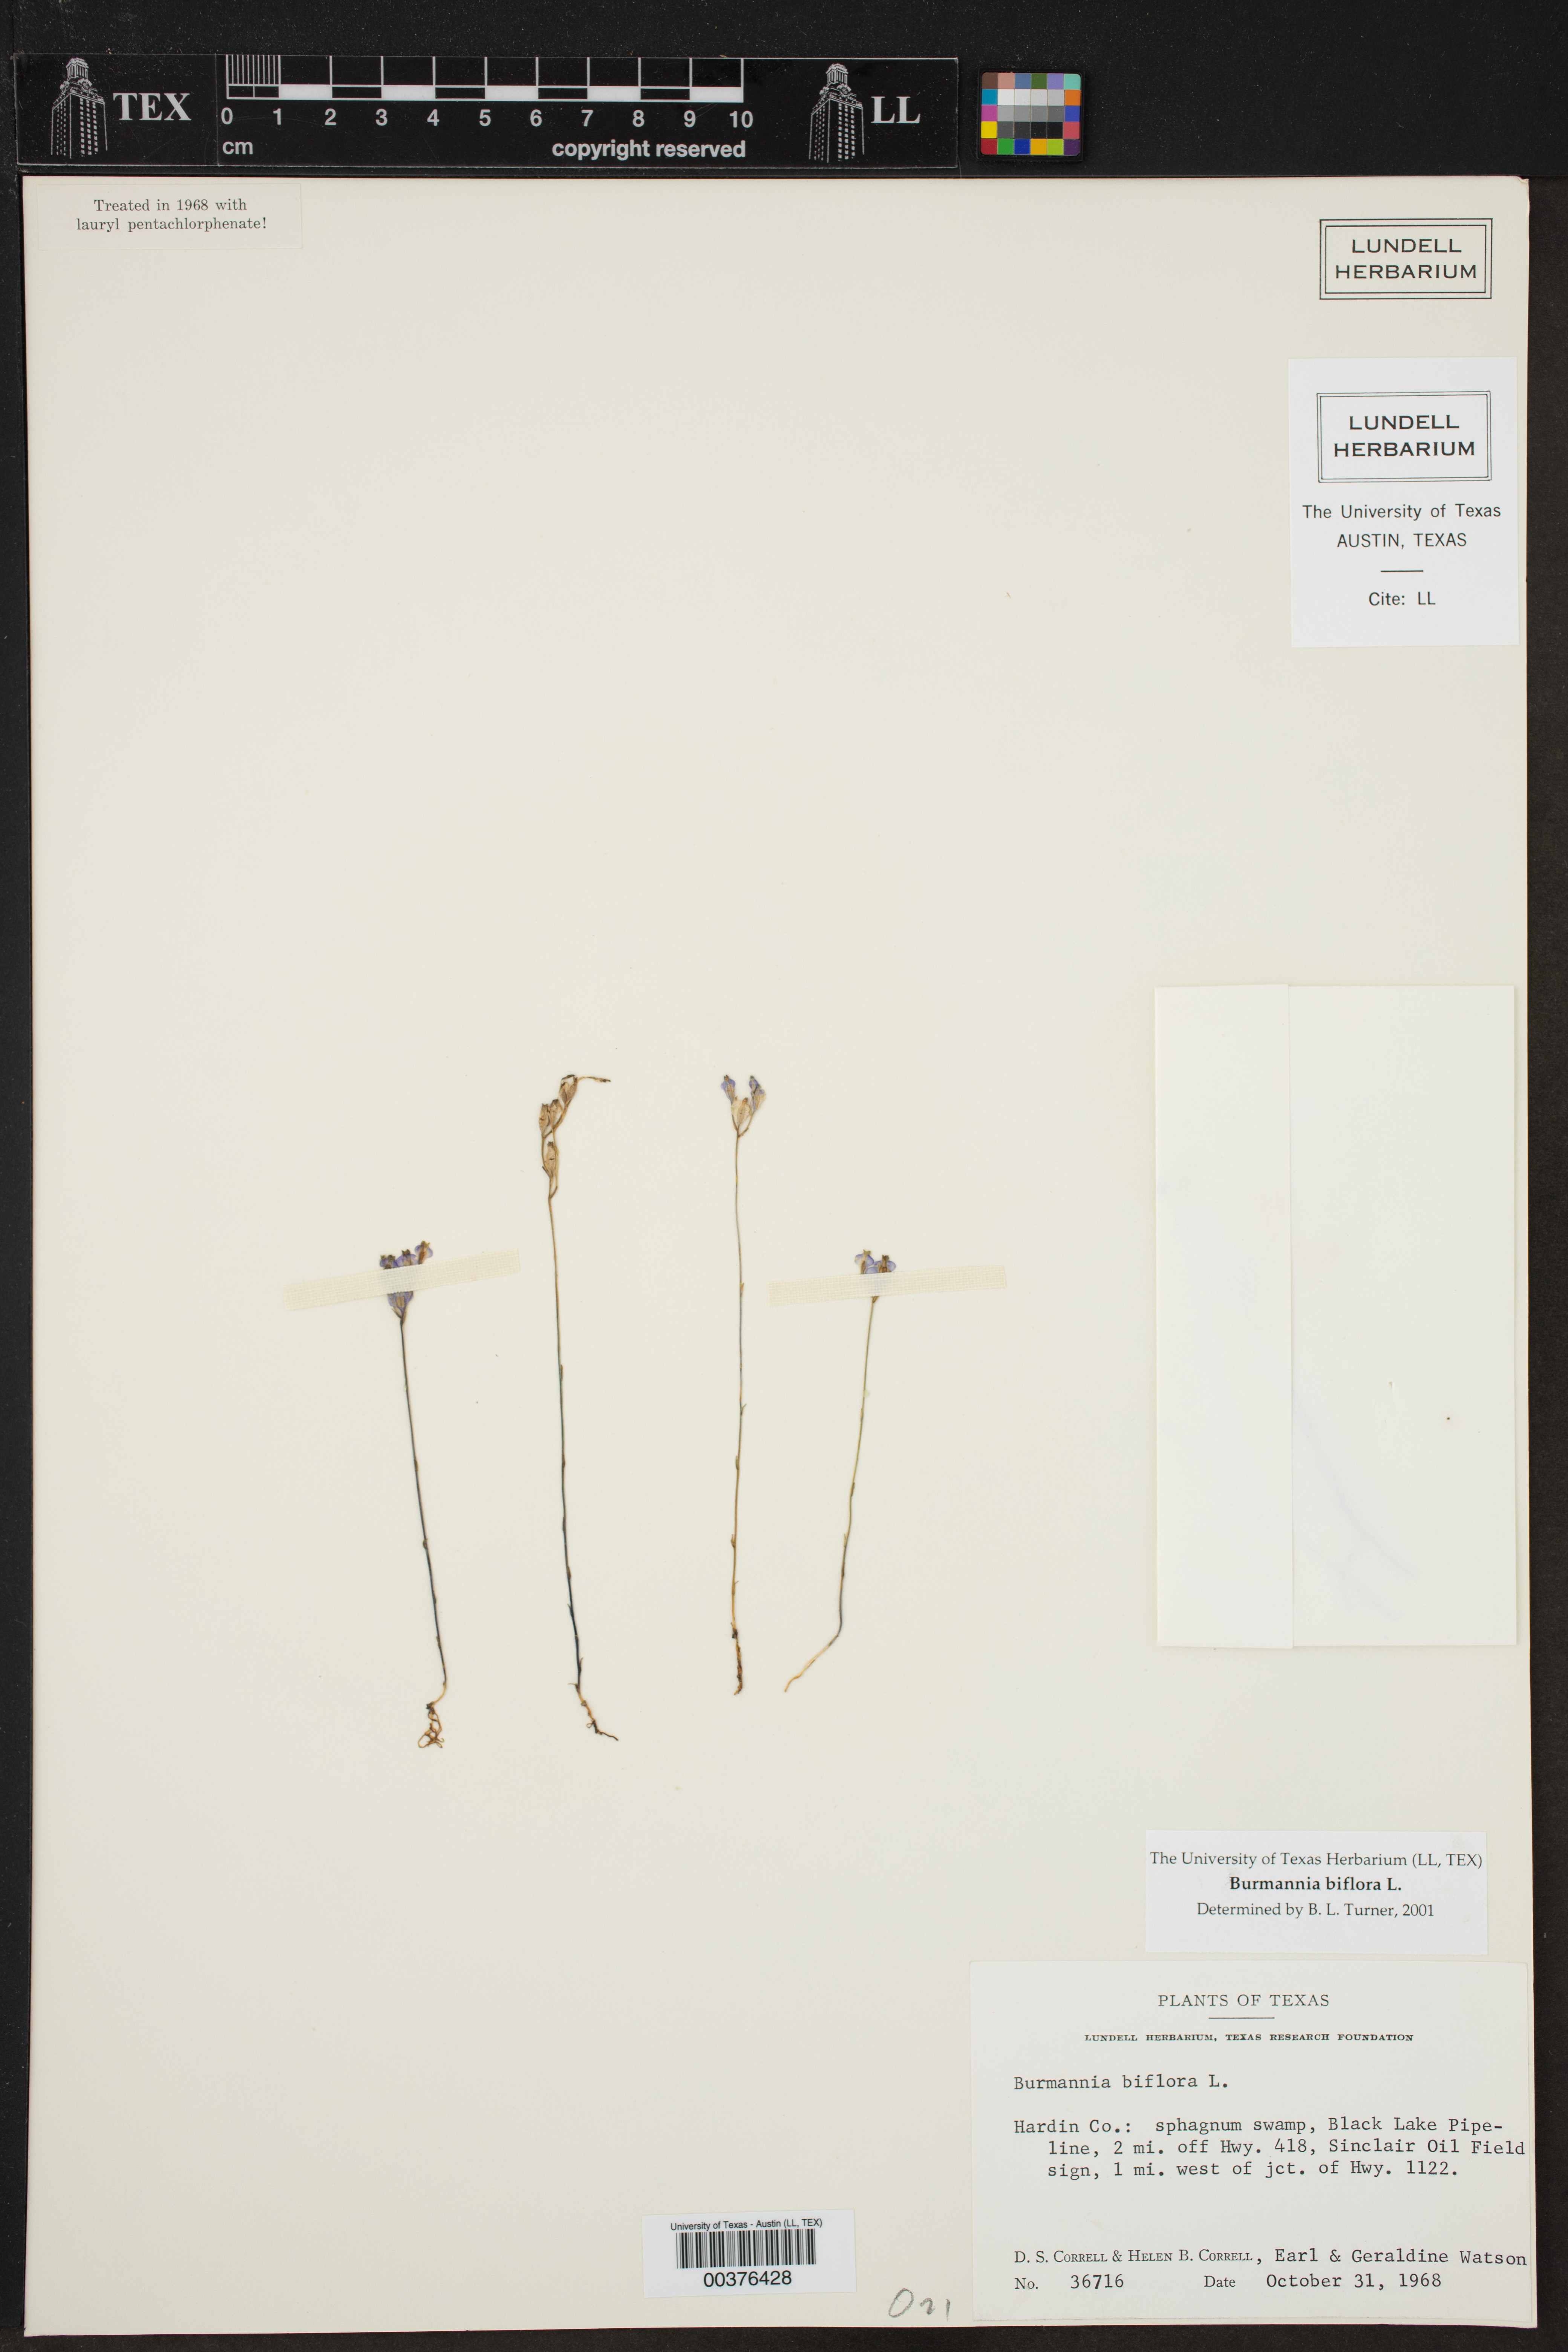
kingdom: Plantae
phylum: Tracheophyta
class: Liliopsida
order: Dioscoreales
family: Burmanniaceae
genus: Burmannia
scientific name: Burmannia biflora
